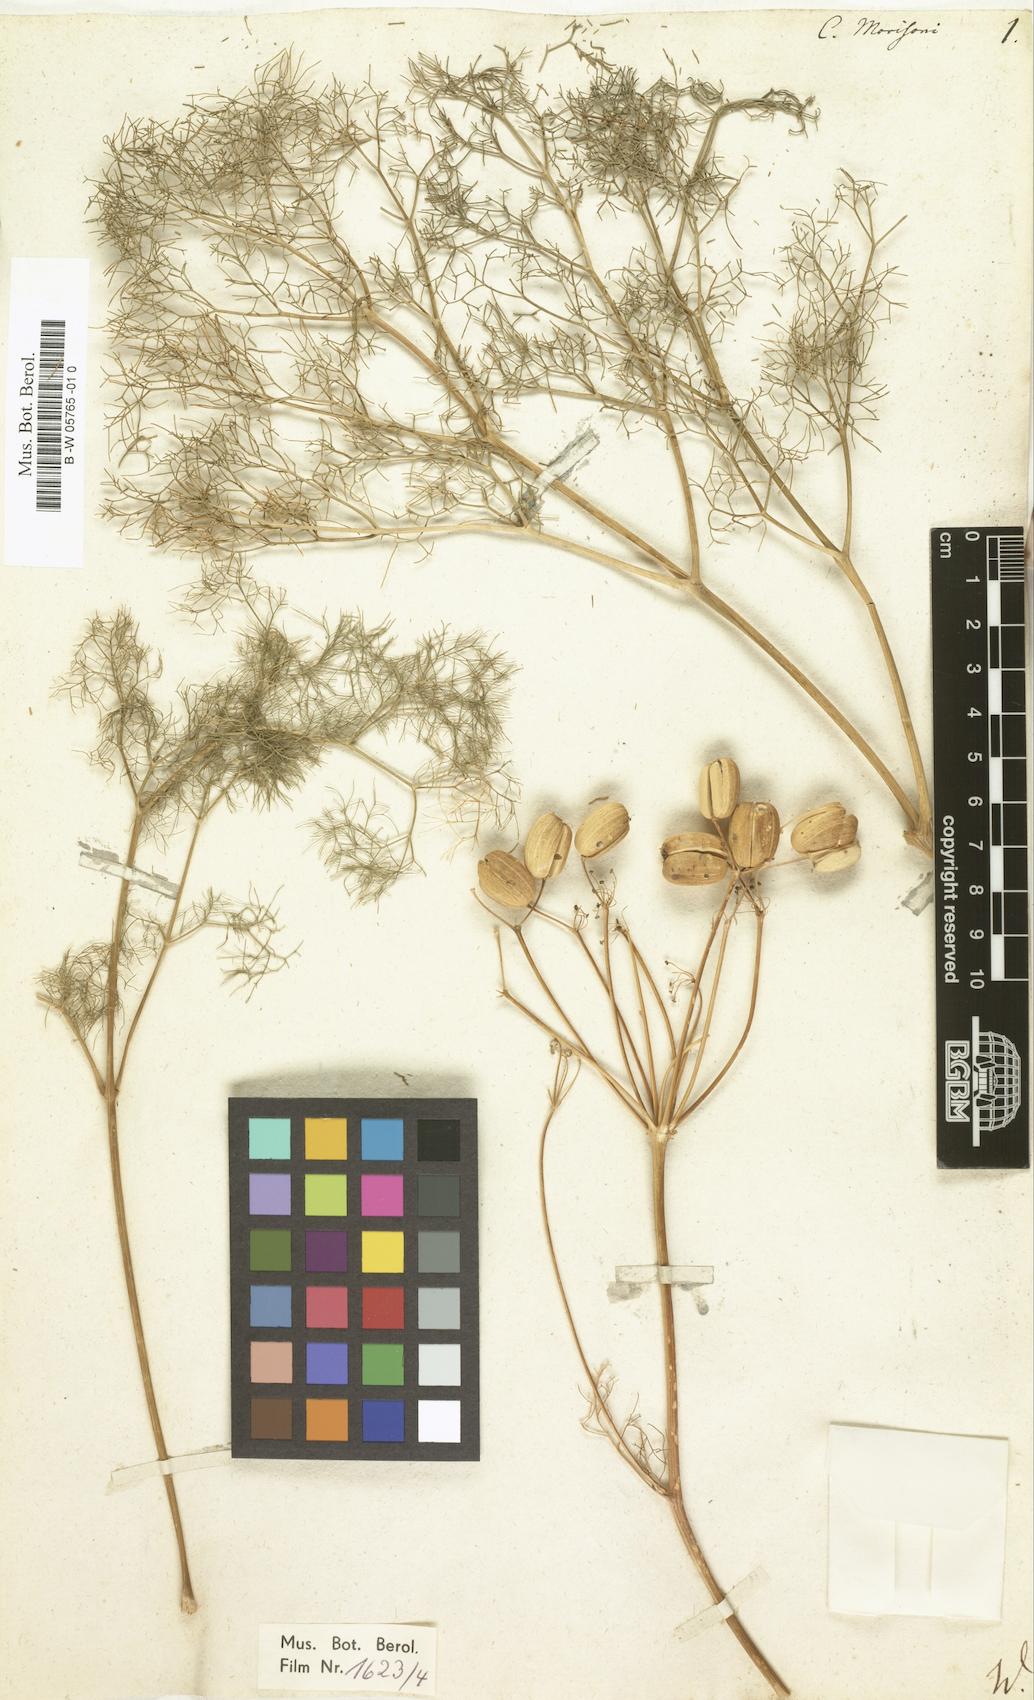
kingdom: Plantae
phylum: Tracheophyta
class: Magnoliopsida
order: Apiales
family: Apiaceae
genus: Prangos
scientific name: Prangos trifida
